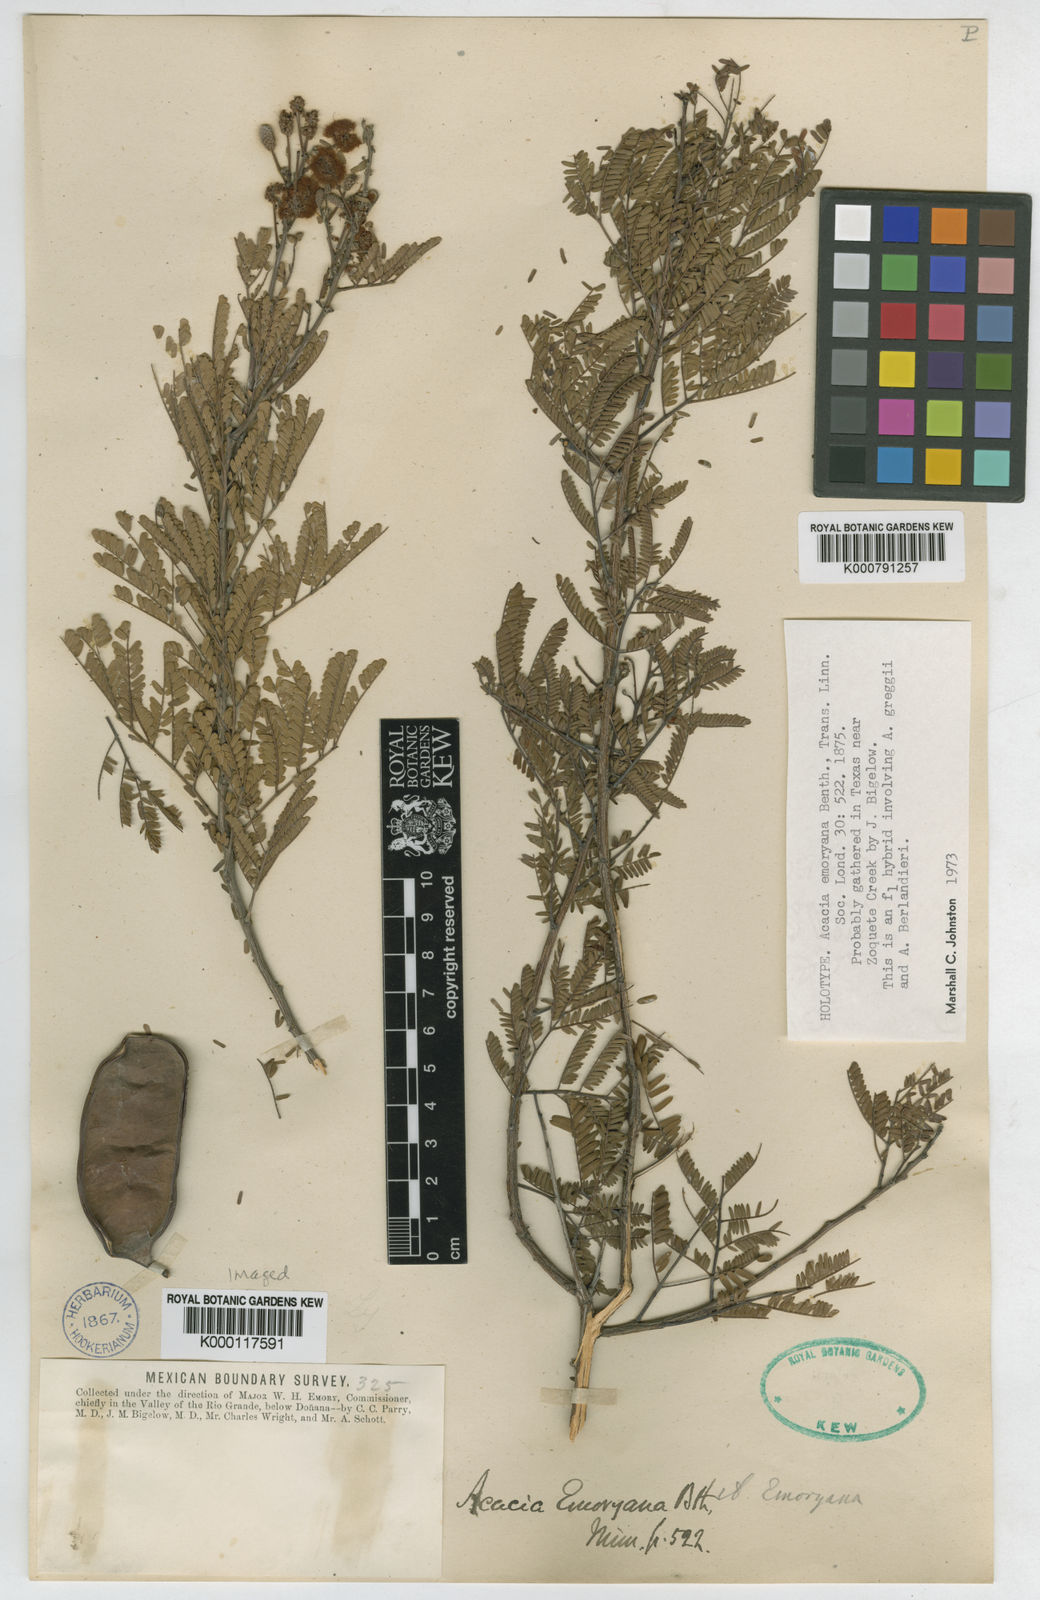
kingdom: Plantae
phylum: Tracheophyta
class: Magnoliopsida
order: Fabales
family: Fabaceae
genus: Senegalia
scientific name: Senegalia emoryana
